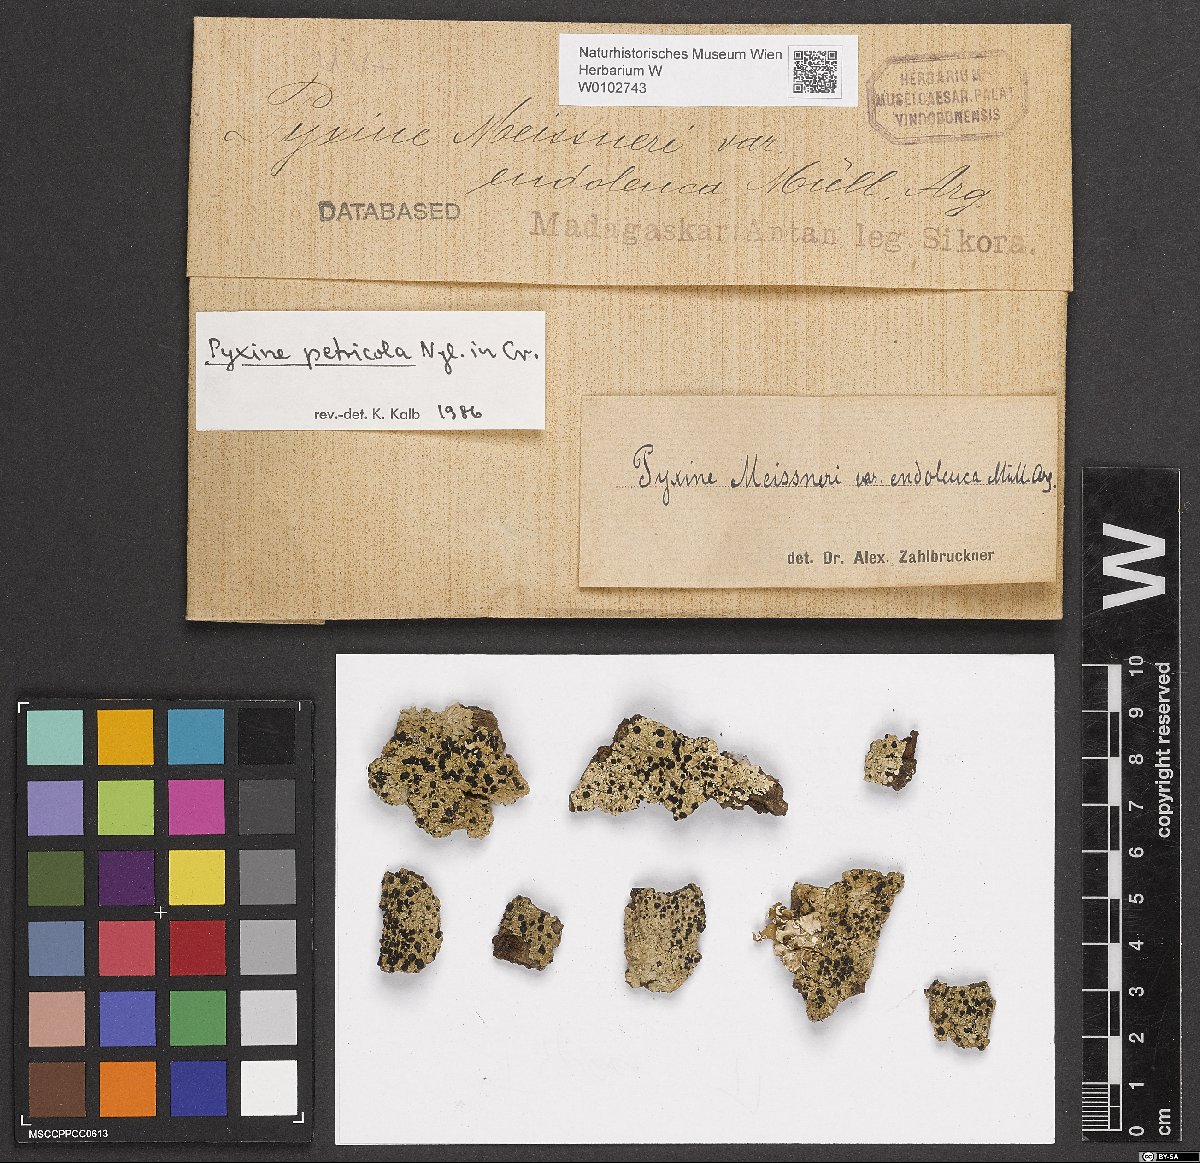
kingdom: Fungi
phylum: Ascomycota
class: Lecanoromycetes
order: Caliciales
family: Caliciaceae
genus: Pyxine
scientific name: Pyxine petricola
